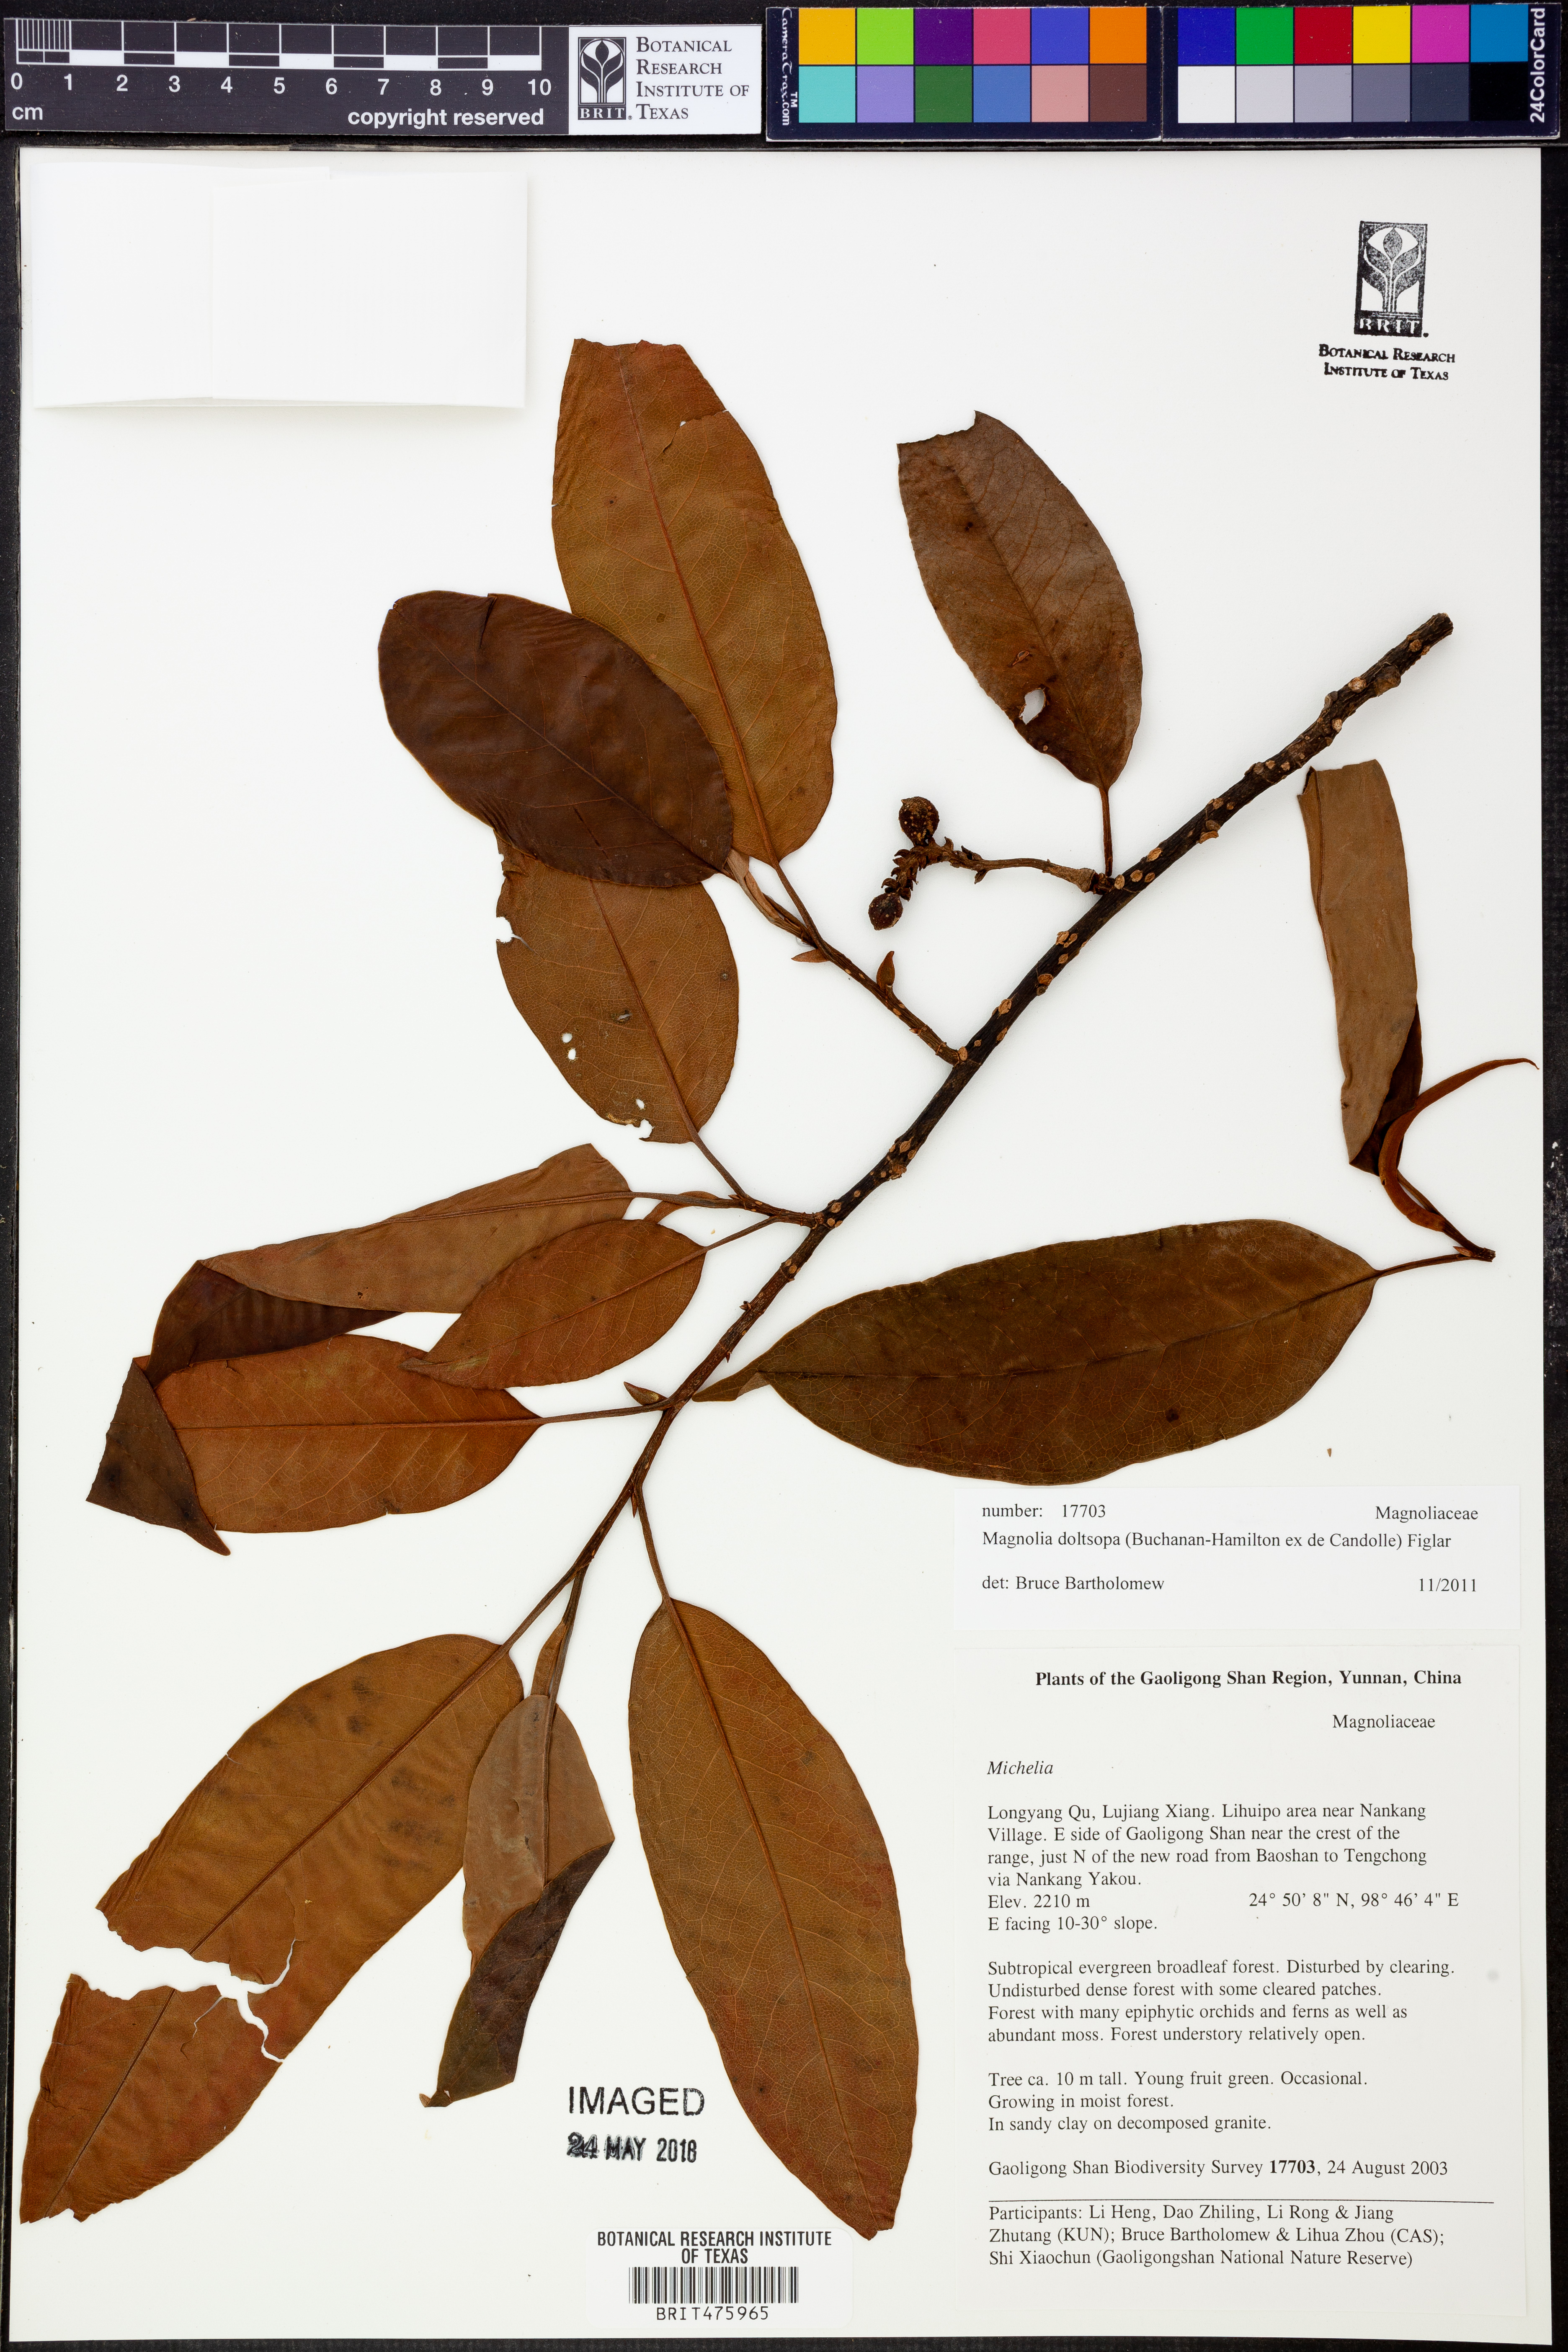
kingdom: Plantae
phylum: Tracheophyta
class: Magnoliopsida
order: Magnoliales
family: Magnoliaceae
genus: Magnolia
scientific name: Magnolia doltsopa
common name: Sweet michelia
